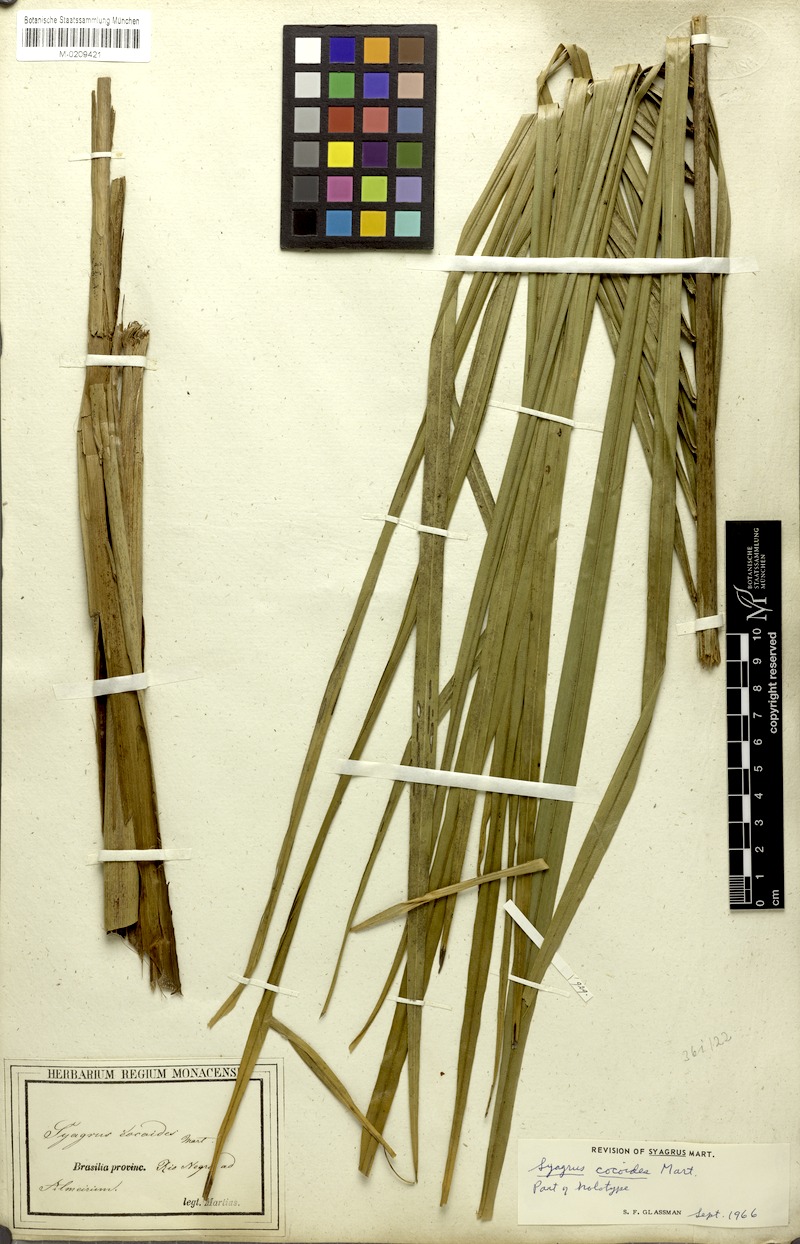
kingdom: Plantae
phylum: Tracheophyta
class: Liliopsida
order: Arecales
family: Arecaceae
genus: Syagrus
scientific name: Syagrus cocoides
